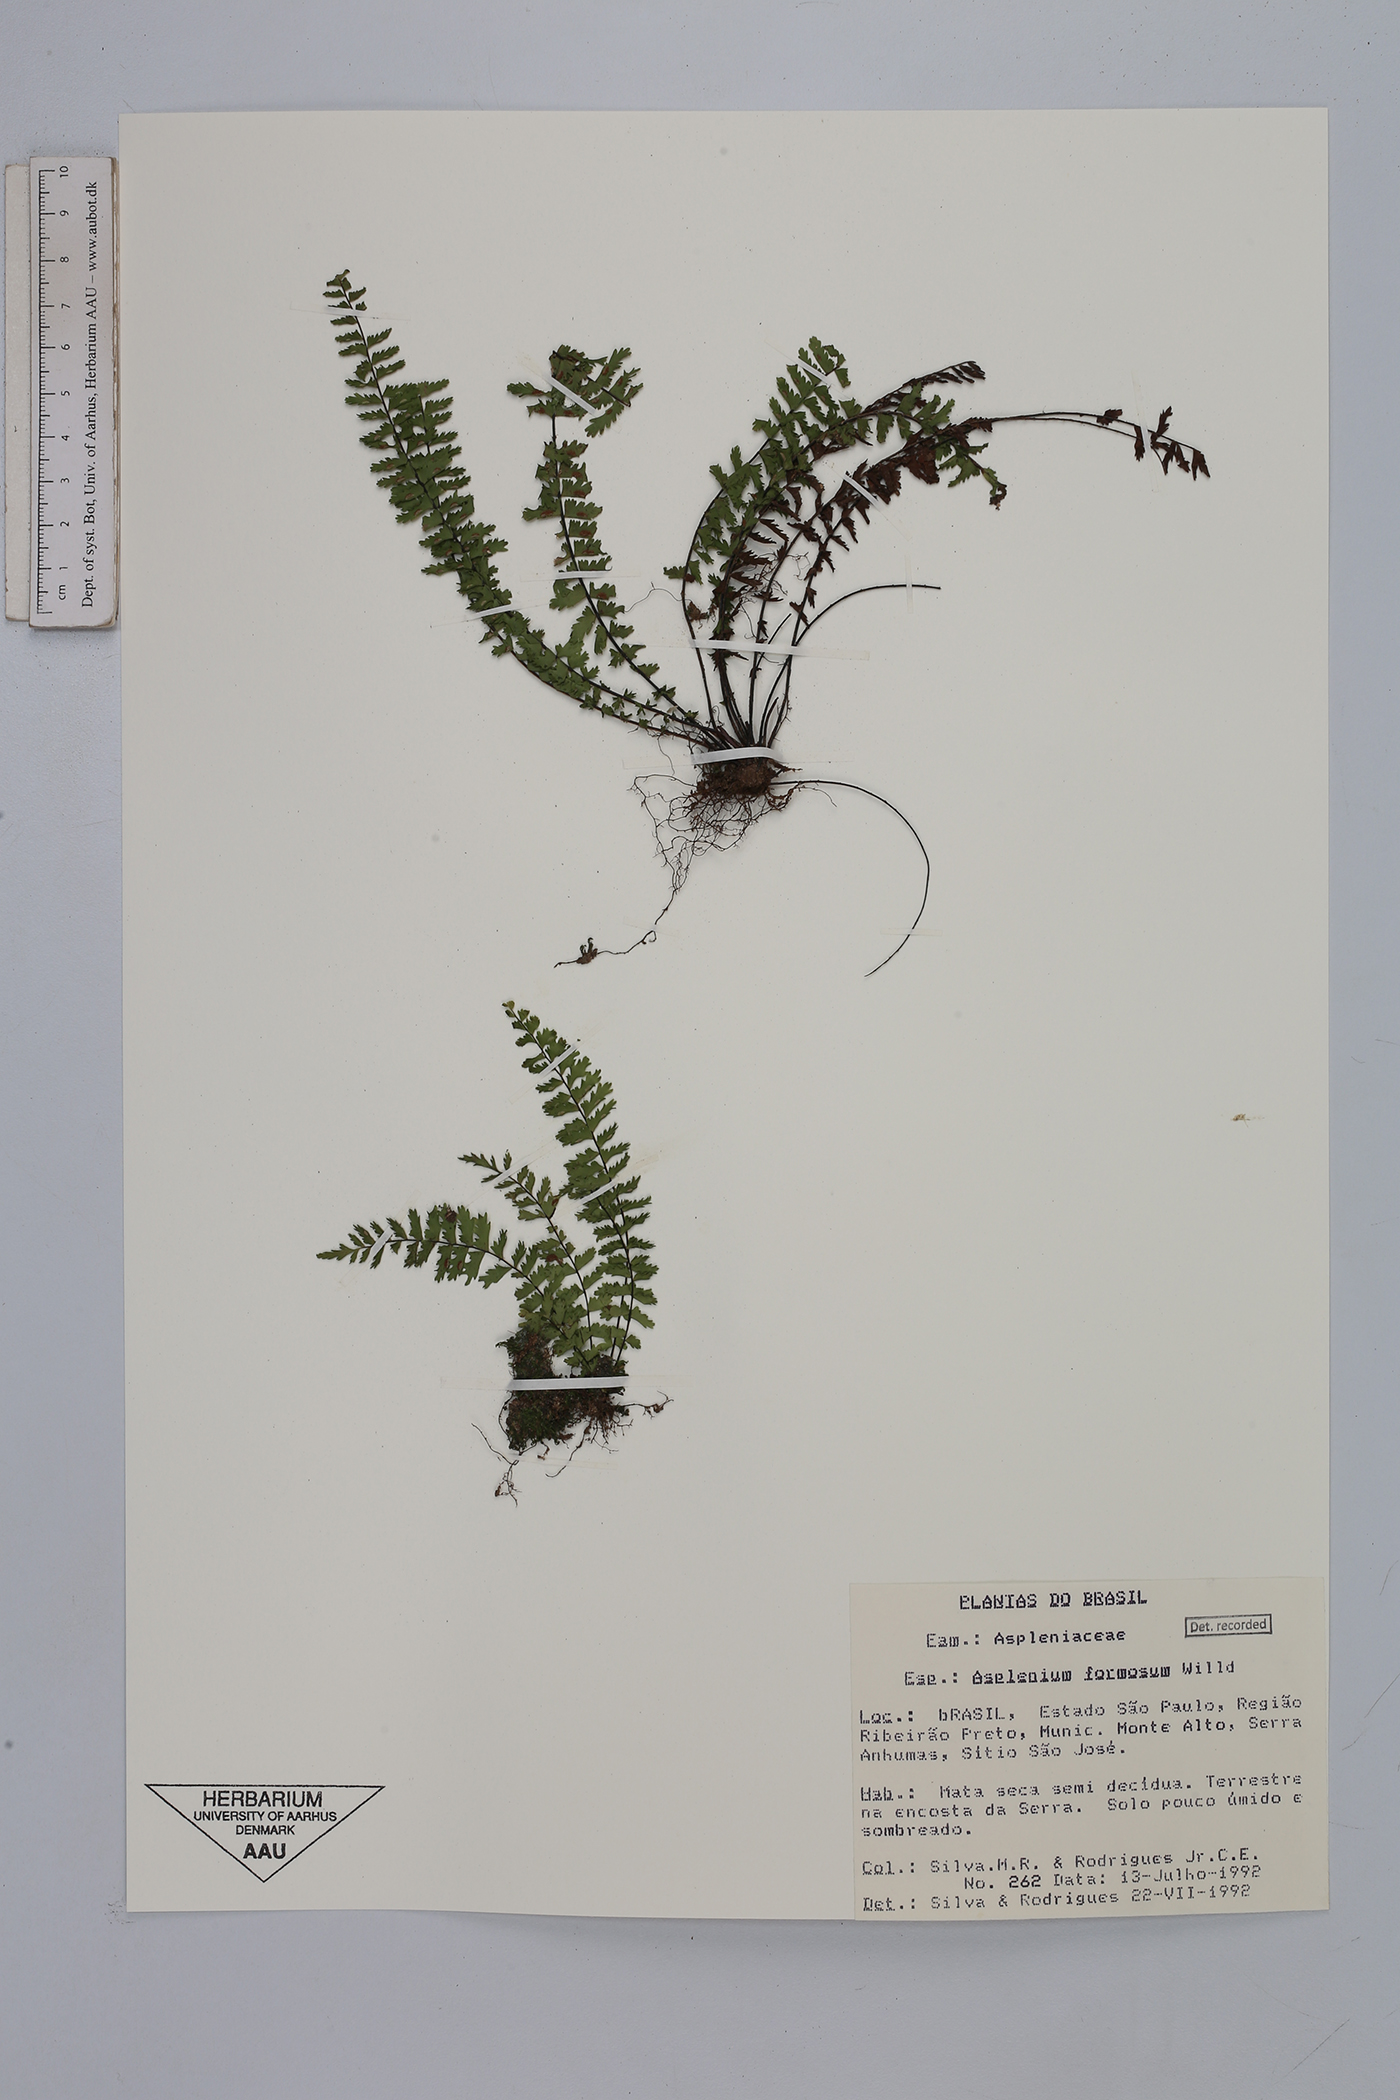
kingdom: Plantae
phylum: Tracheophyta
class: Polypodiopsida
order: Polypodiales
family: Aspleniaceae
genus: Asplenium
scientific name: Asplenium formosum
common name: Showy spleenwort
